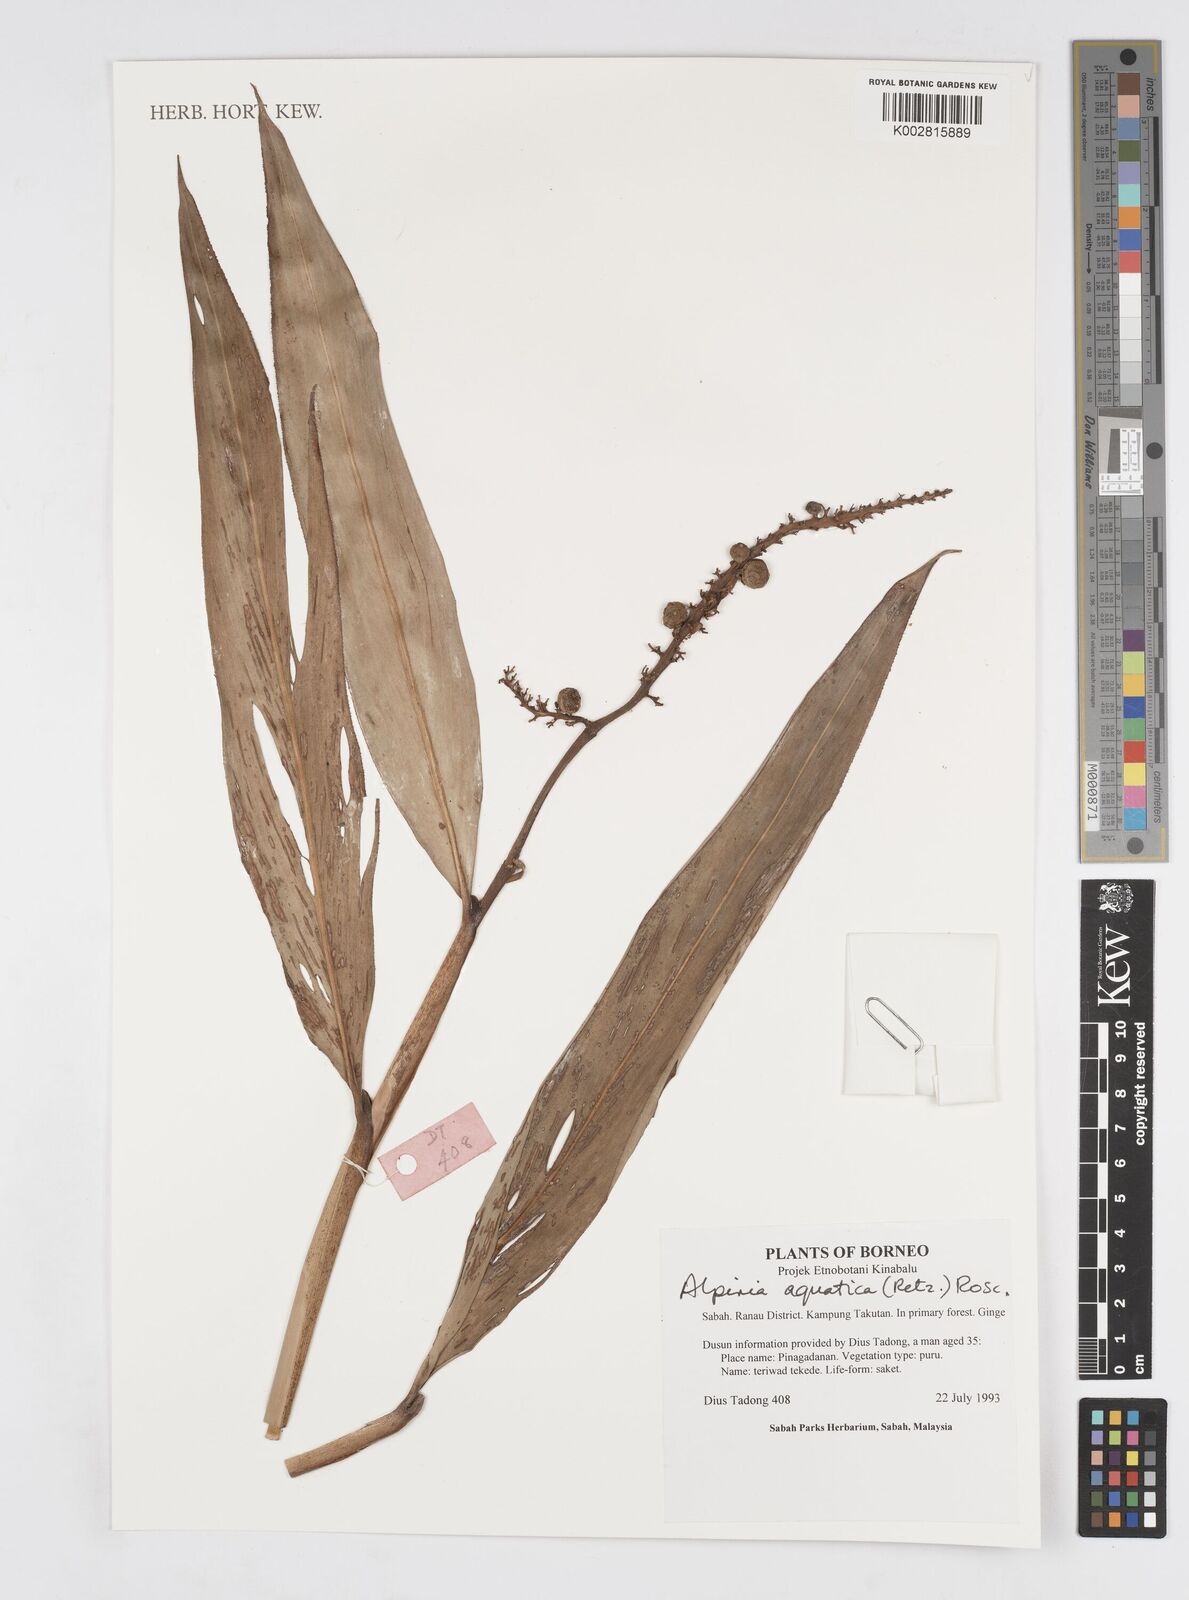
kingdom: Plantae
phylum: Tracheophyta
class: Liliopsida
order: Zingiberales
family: Zingiberaceae
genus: Alpinia
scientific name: Alpinia aquatica
